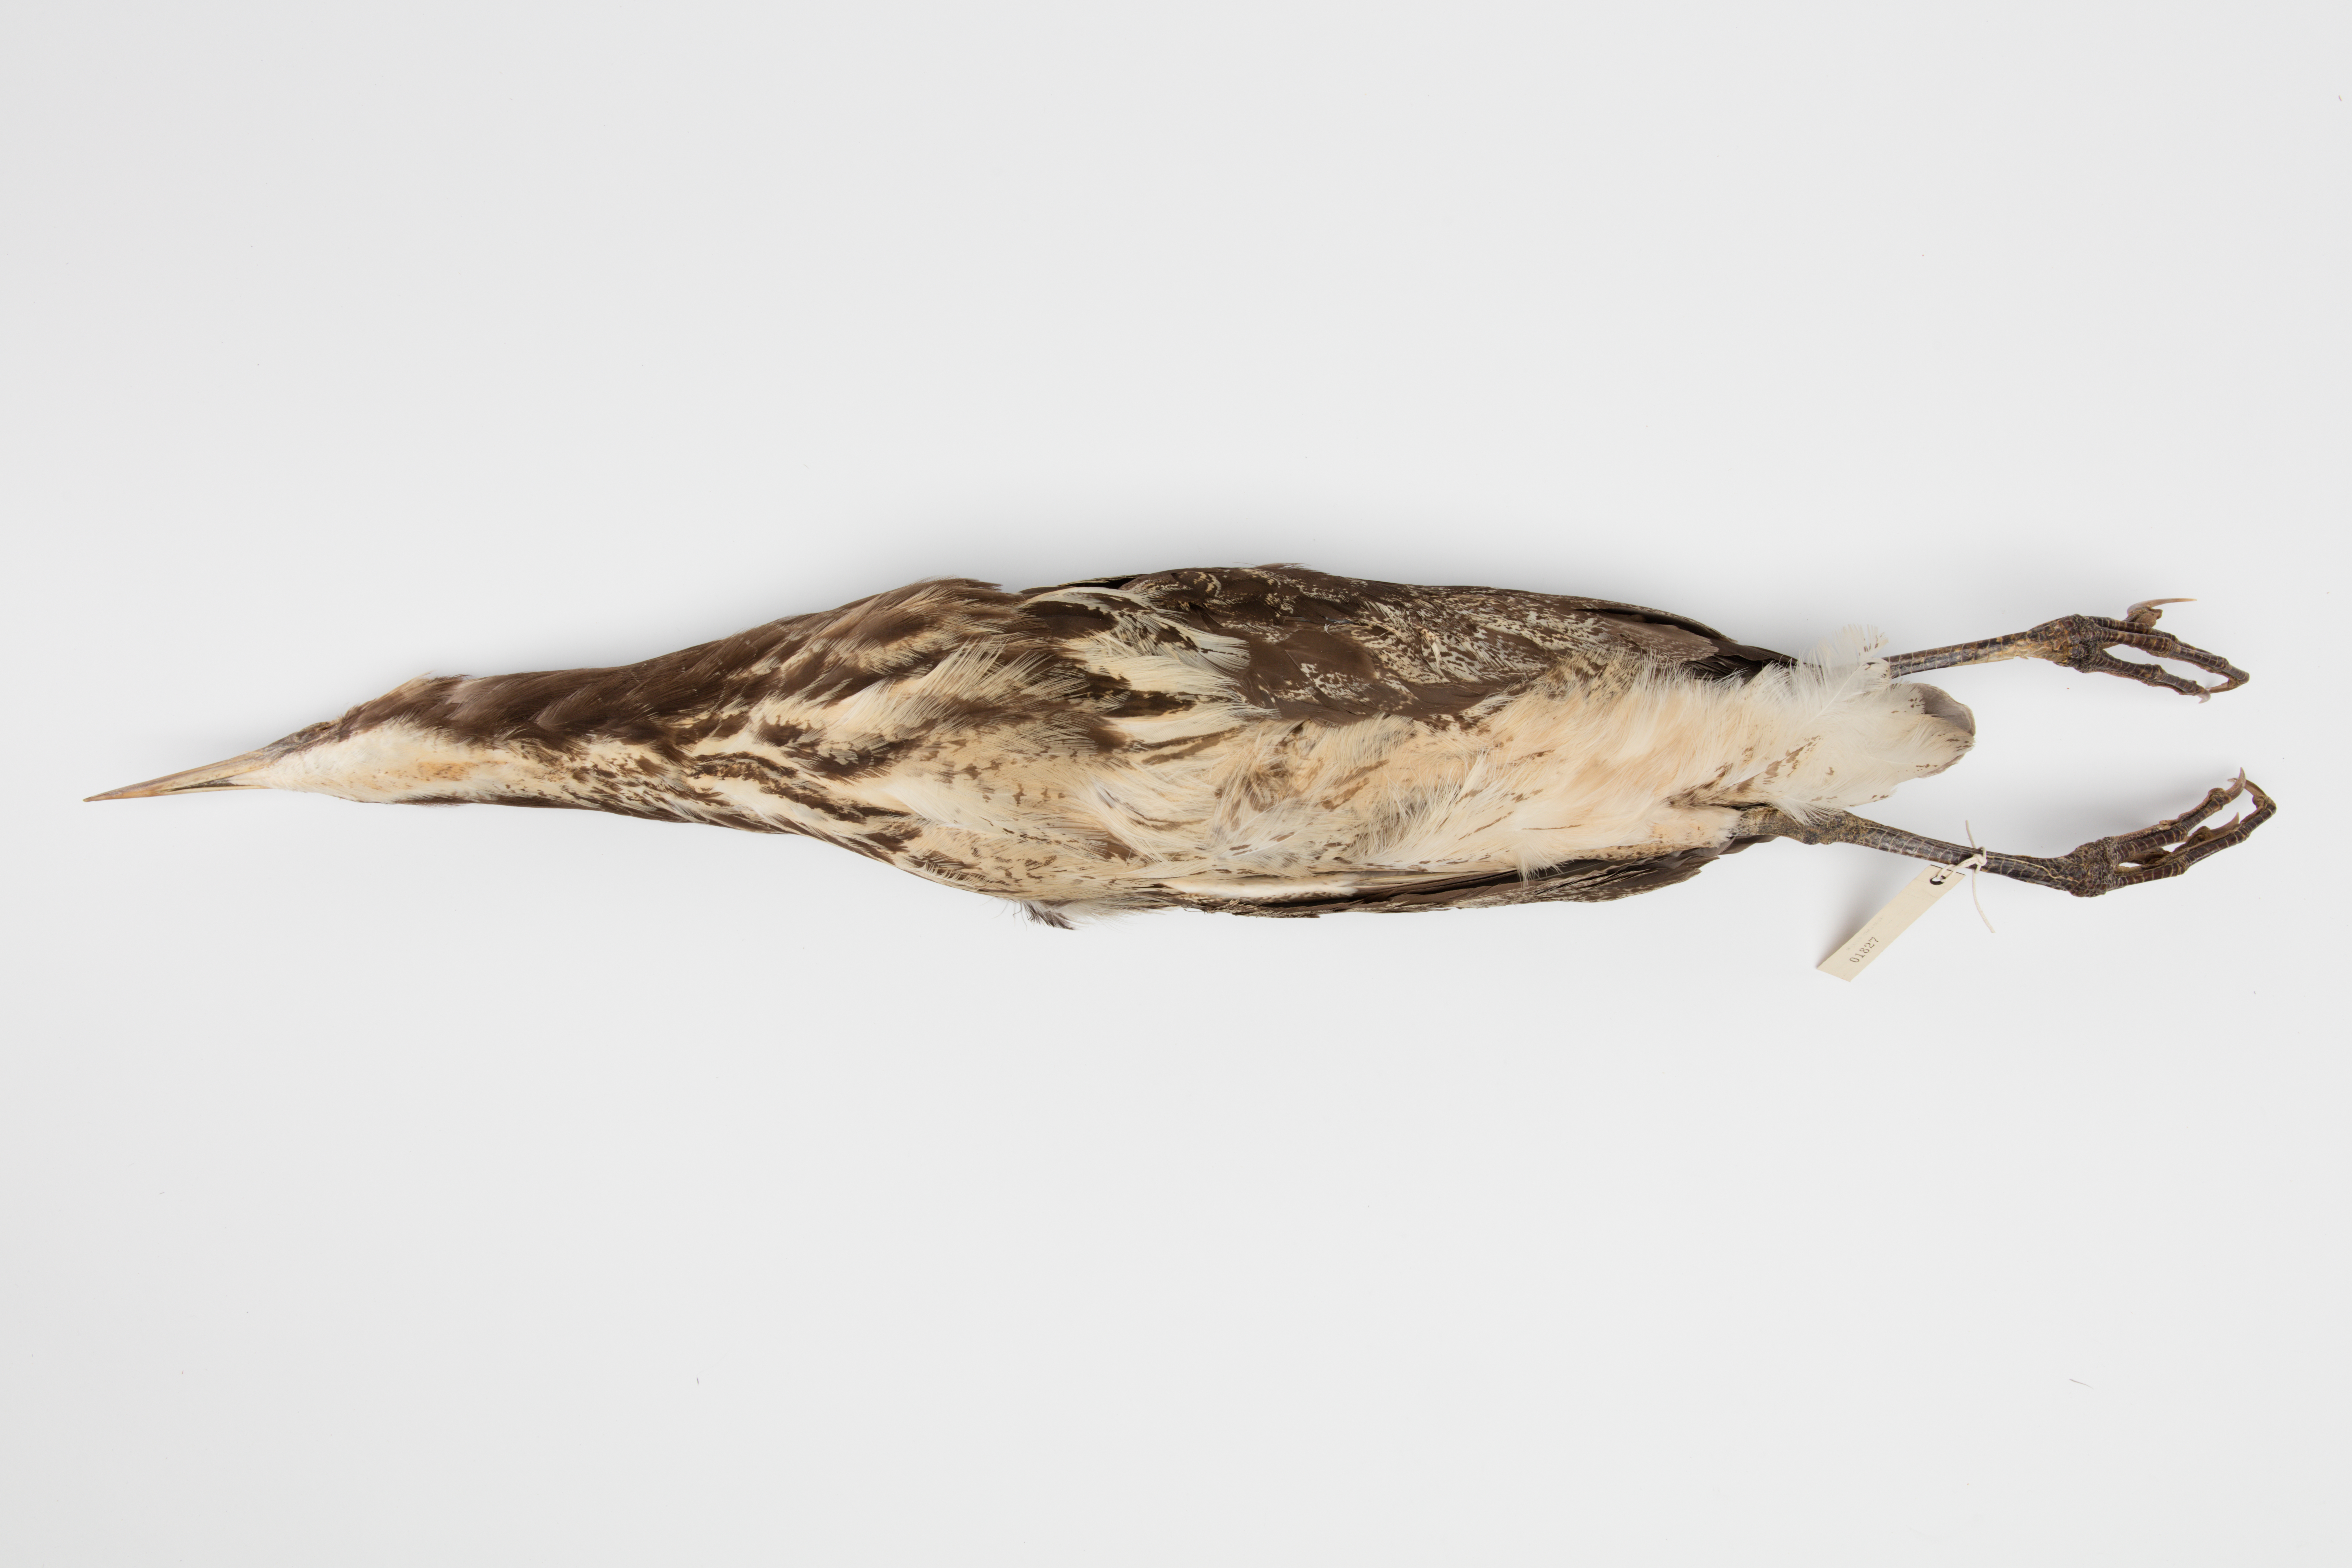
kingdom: Animalia
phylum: Chordata
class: Aves
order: Pelecaniformes
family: Ardeidae
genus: Botaurus
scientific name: Botaurus poiciloptilus
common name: Australasian bittern
